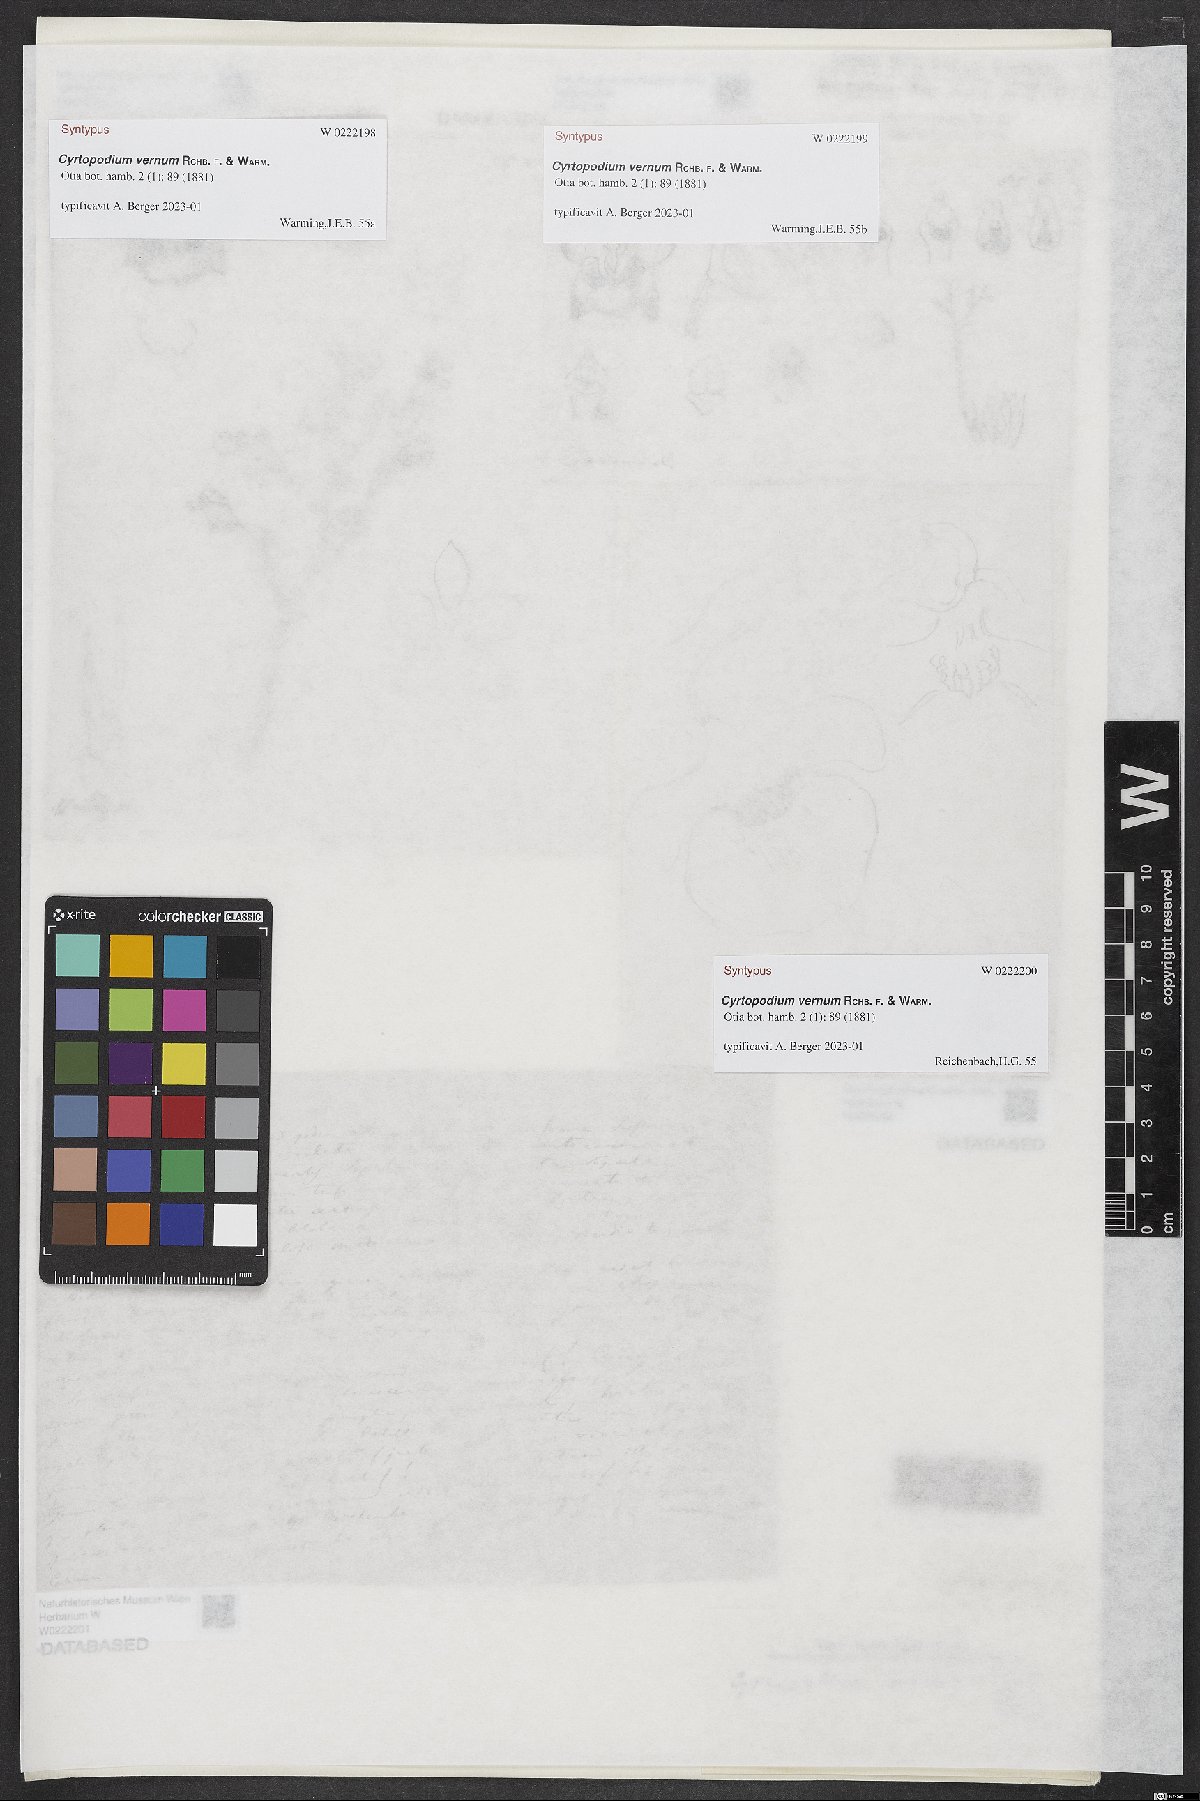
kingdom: Plantae
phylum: Tracheophyta
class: Liliopsida
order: Asparagales
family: Orchidaceae
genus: Cyrtopodium
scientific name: Cyrtopodium vernum
